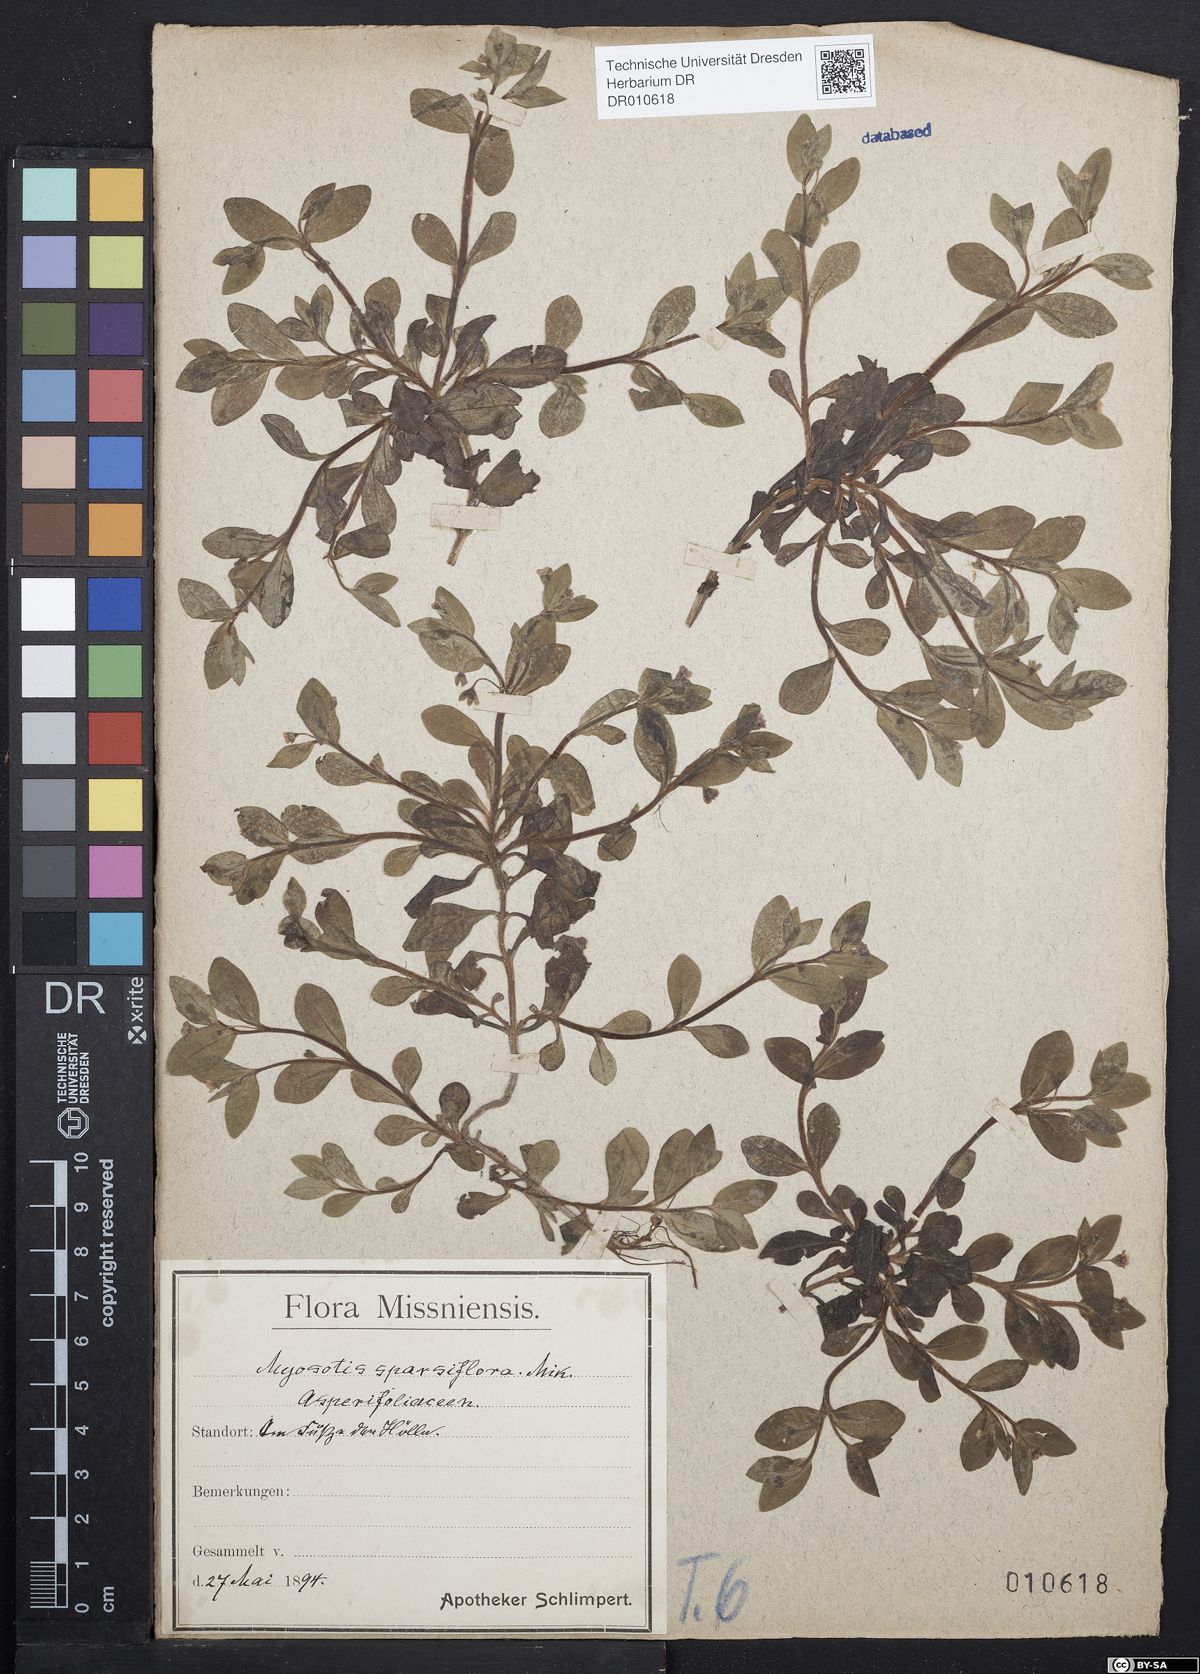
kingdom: Plantae
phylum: Tracheophyta
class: Magnoliopsida
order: Boraginales
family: Boraginaceae
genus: Myosotis
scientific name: Myosotis sparsiflora
